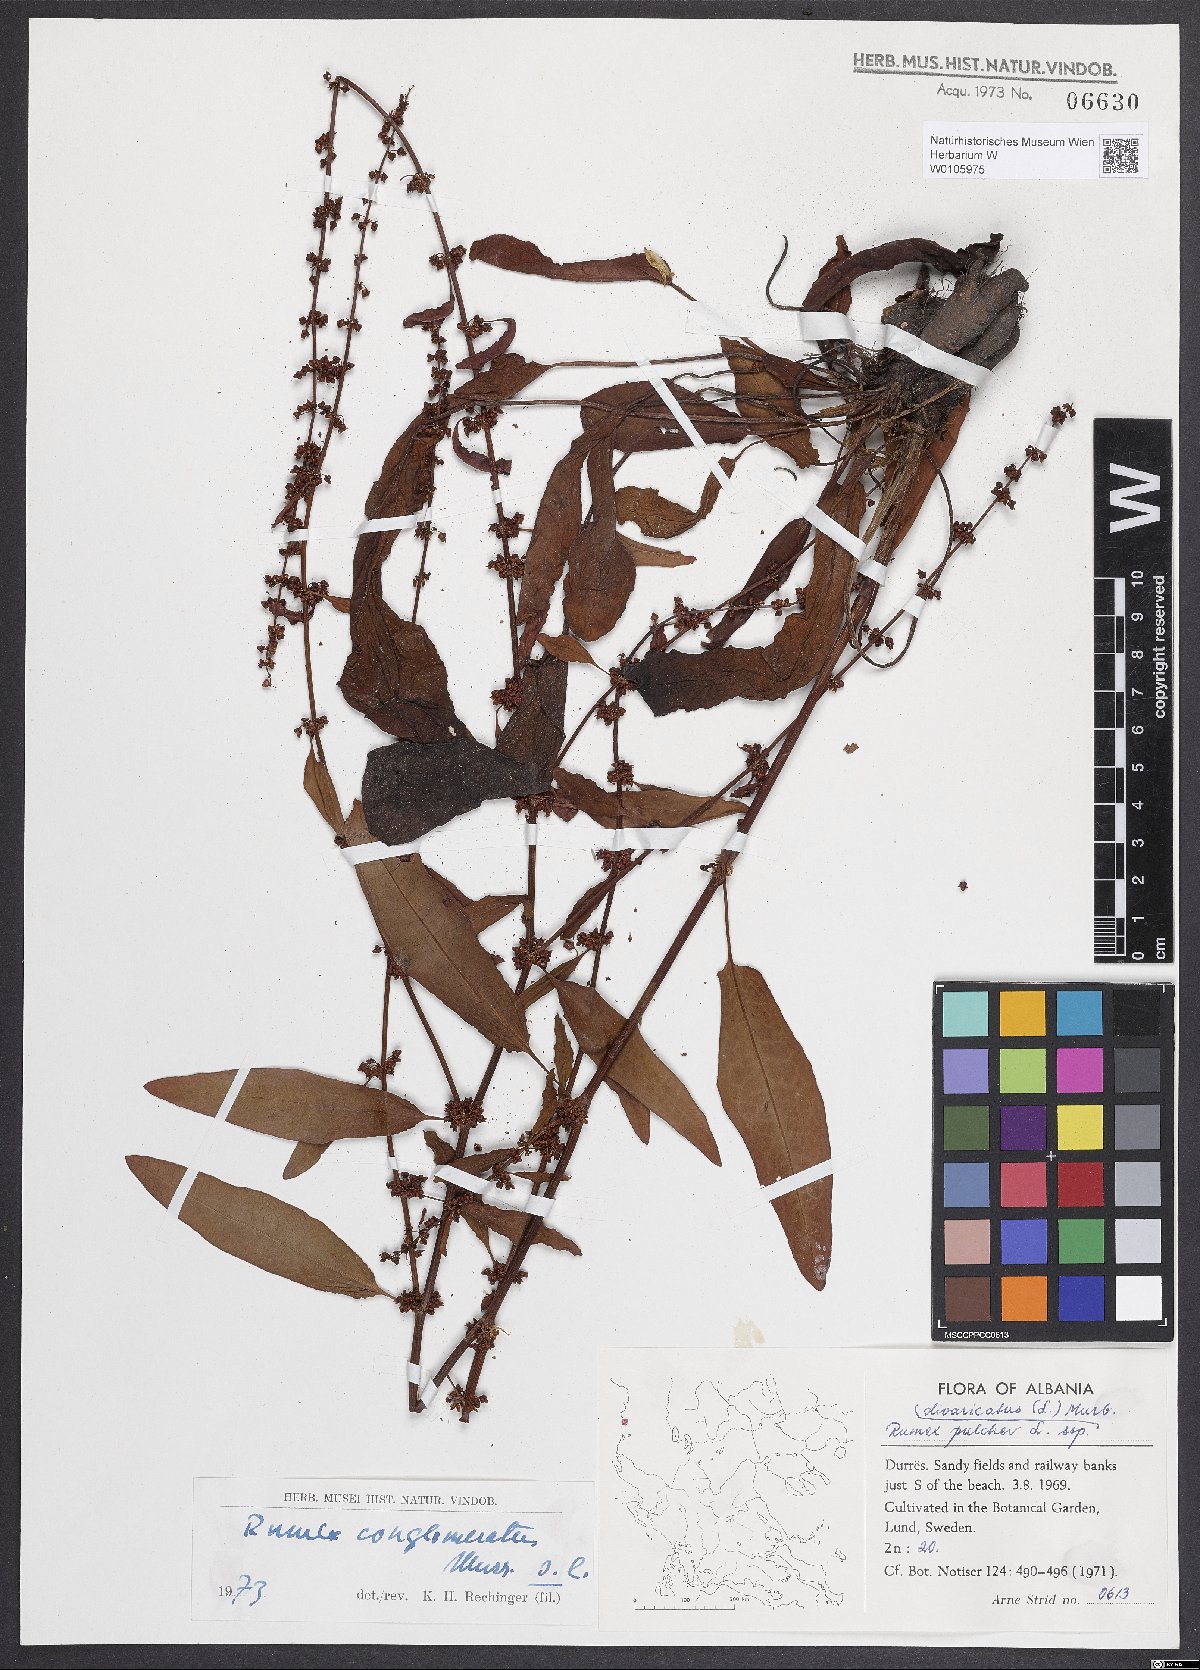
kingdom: Plantae
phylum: Tracheophyta
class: Magnoliopsida
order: Caryophyllales
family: Polygonaceae
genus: Rumex
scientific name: Rumex conglomeratus
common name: Clustered dock
